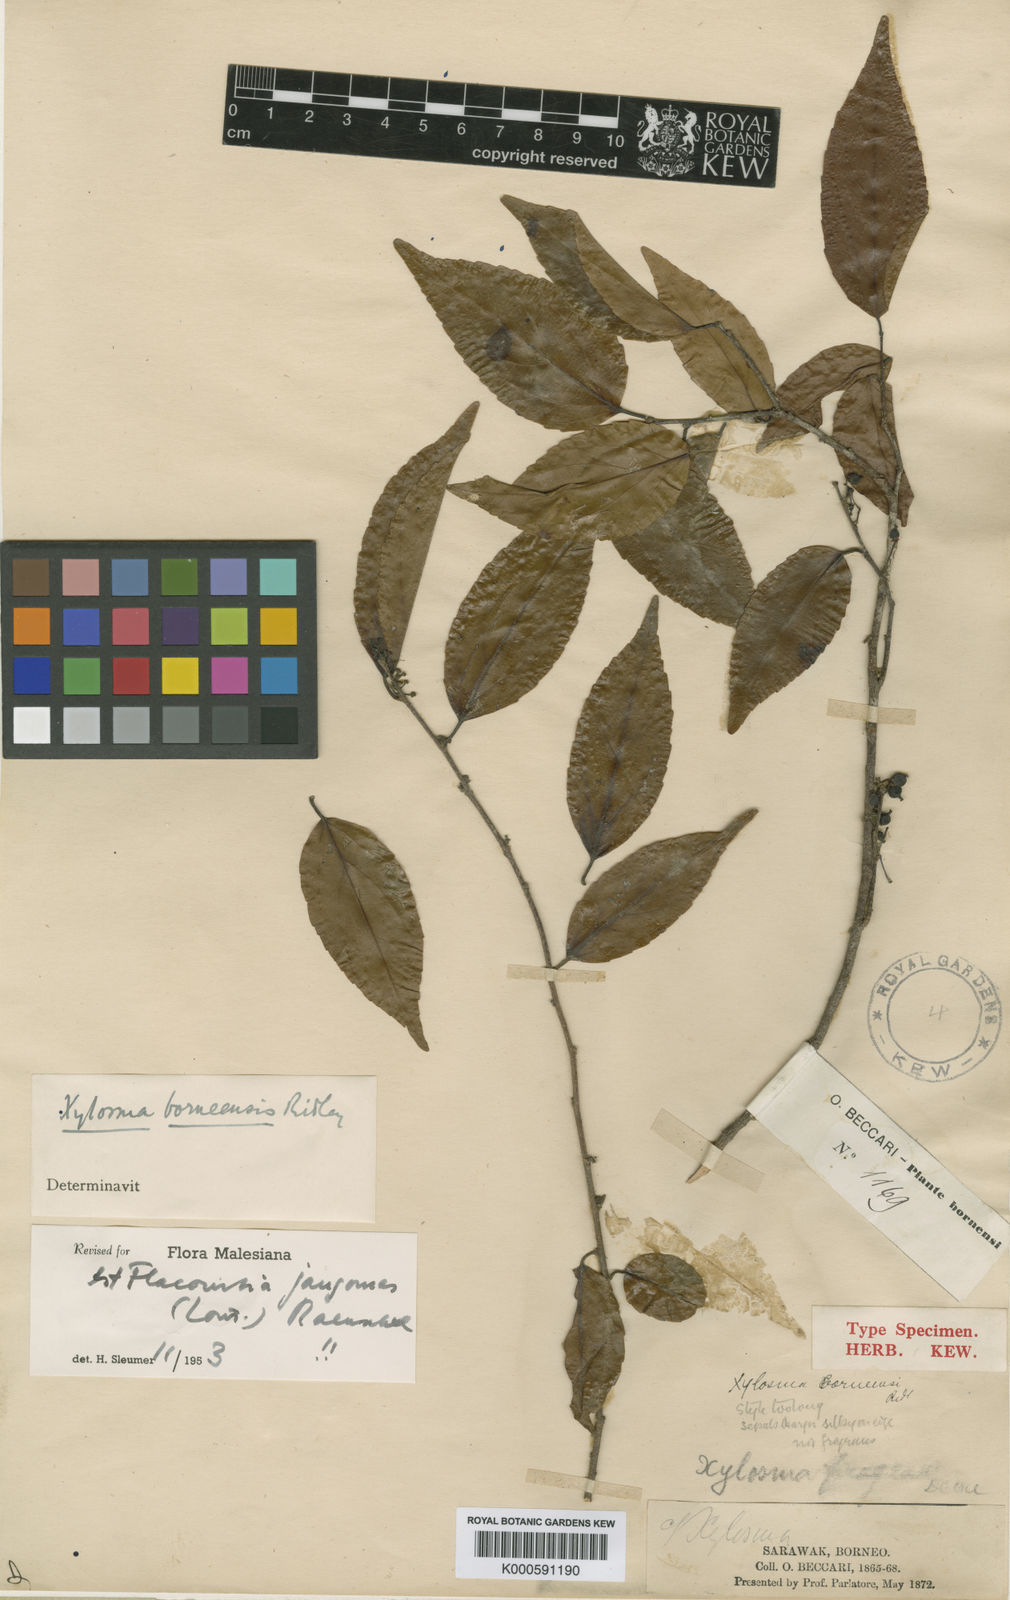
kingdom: Plantae
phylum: Tracheophyta
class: Magnoliopsida
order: Malpighiales
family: Salicaceae
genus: Flacourtia
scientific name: Flacourtia jangomas
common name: Indian-plum
